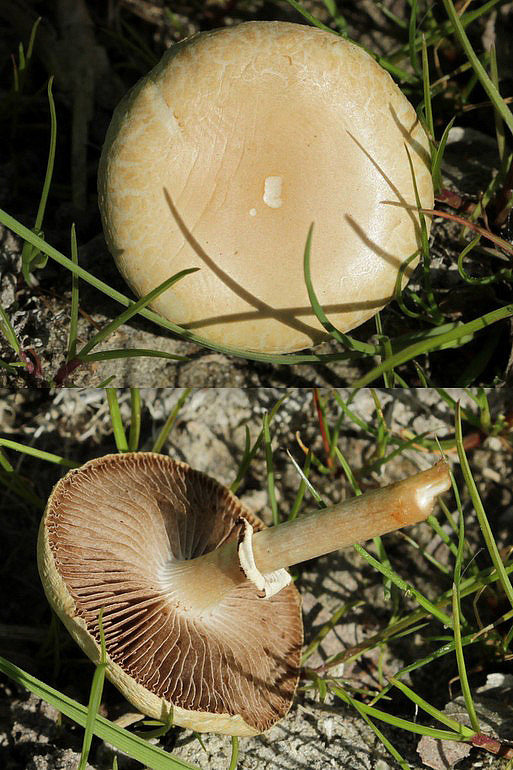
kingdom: Fungi
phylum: Basidiomycota
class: Agaricomycetes
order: Agaricales
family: Strophariaceae
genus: Agrocybe
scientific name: Agrocybe praecox
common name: tidlig agerhat
